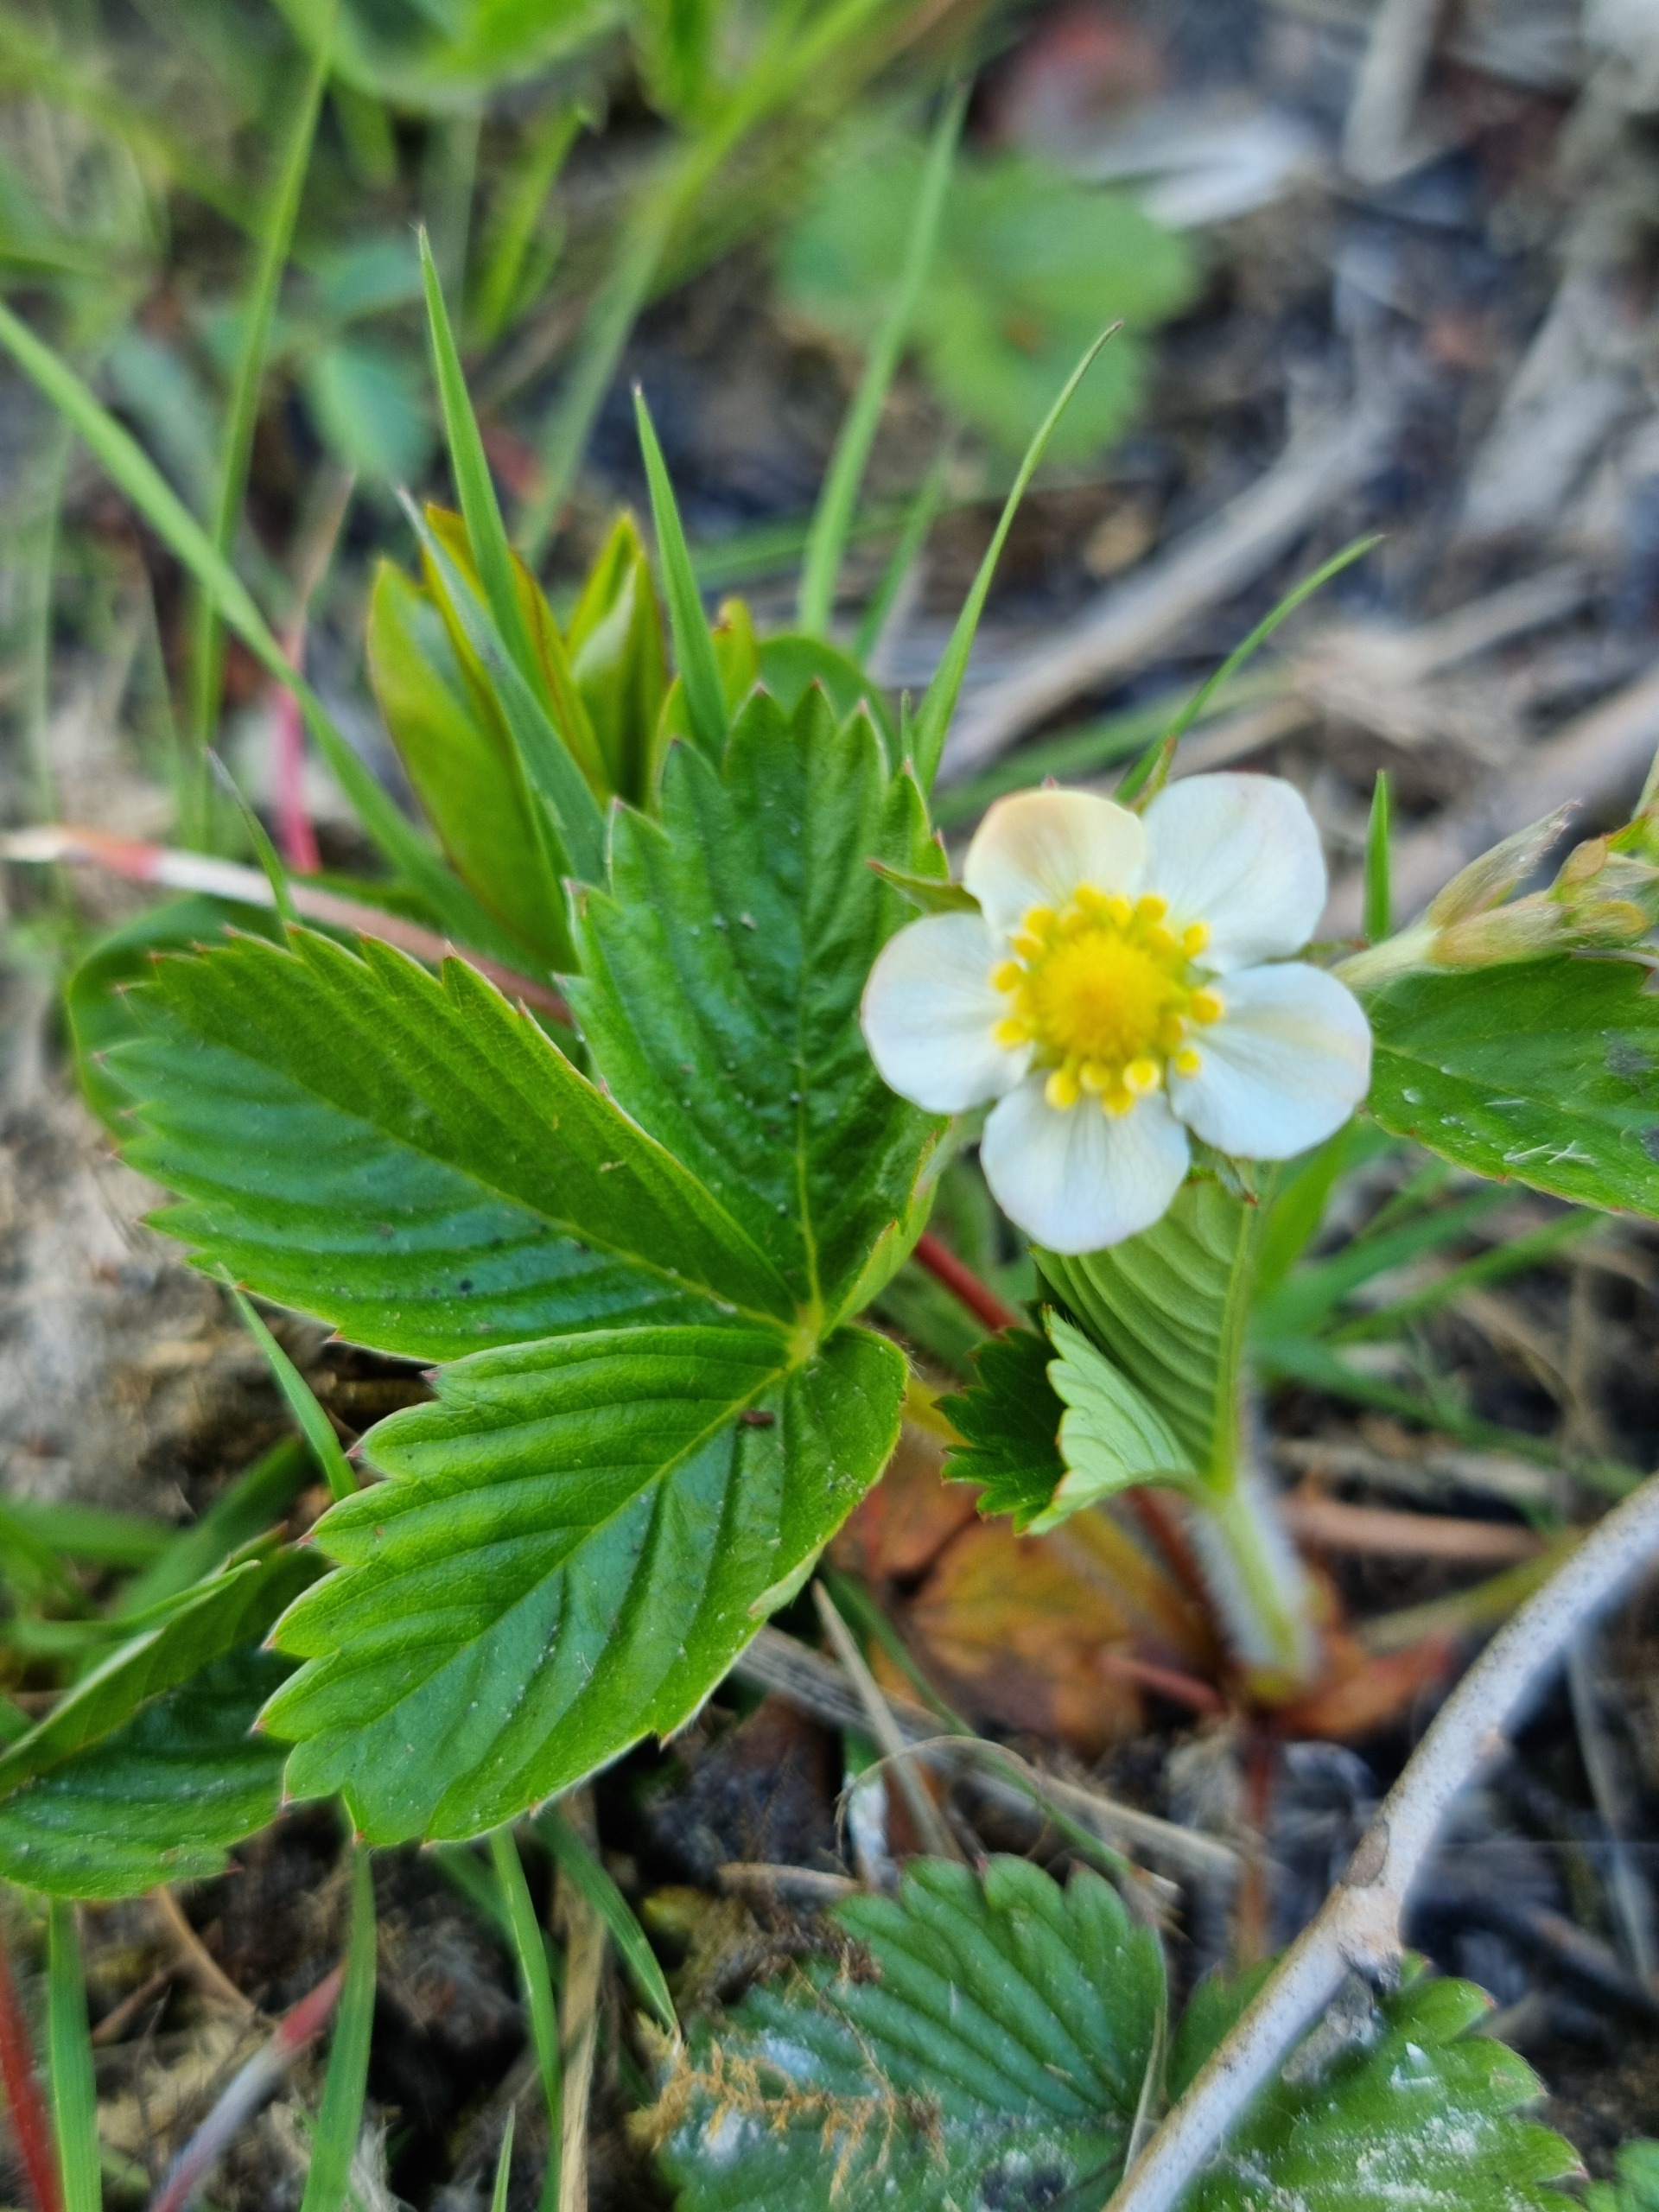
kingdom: Plantae
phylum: Tracheophyta
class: Magnoliopsida
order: Rosales
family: Rosaceae
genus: Fragaria
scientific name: Fragaria vesca
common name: Skov-jordbær
